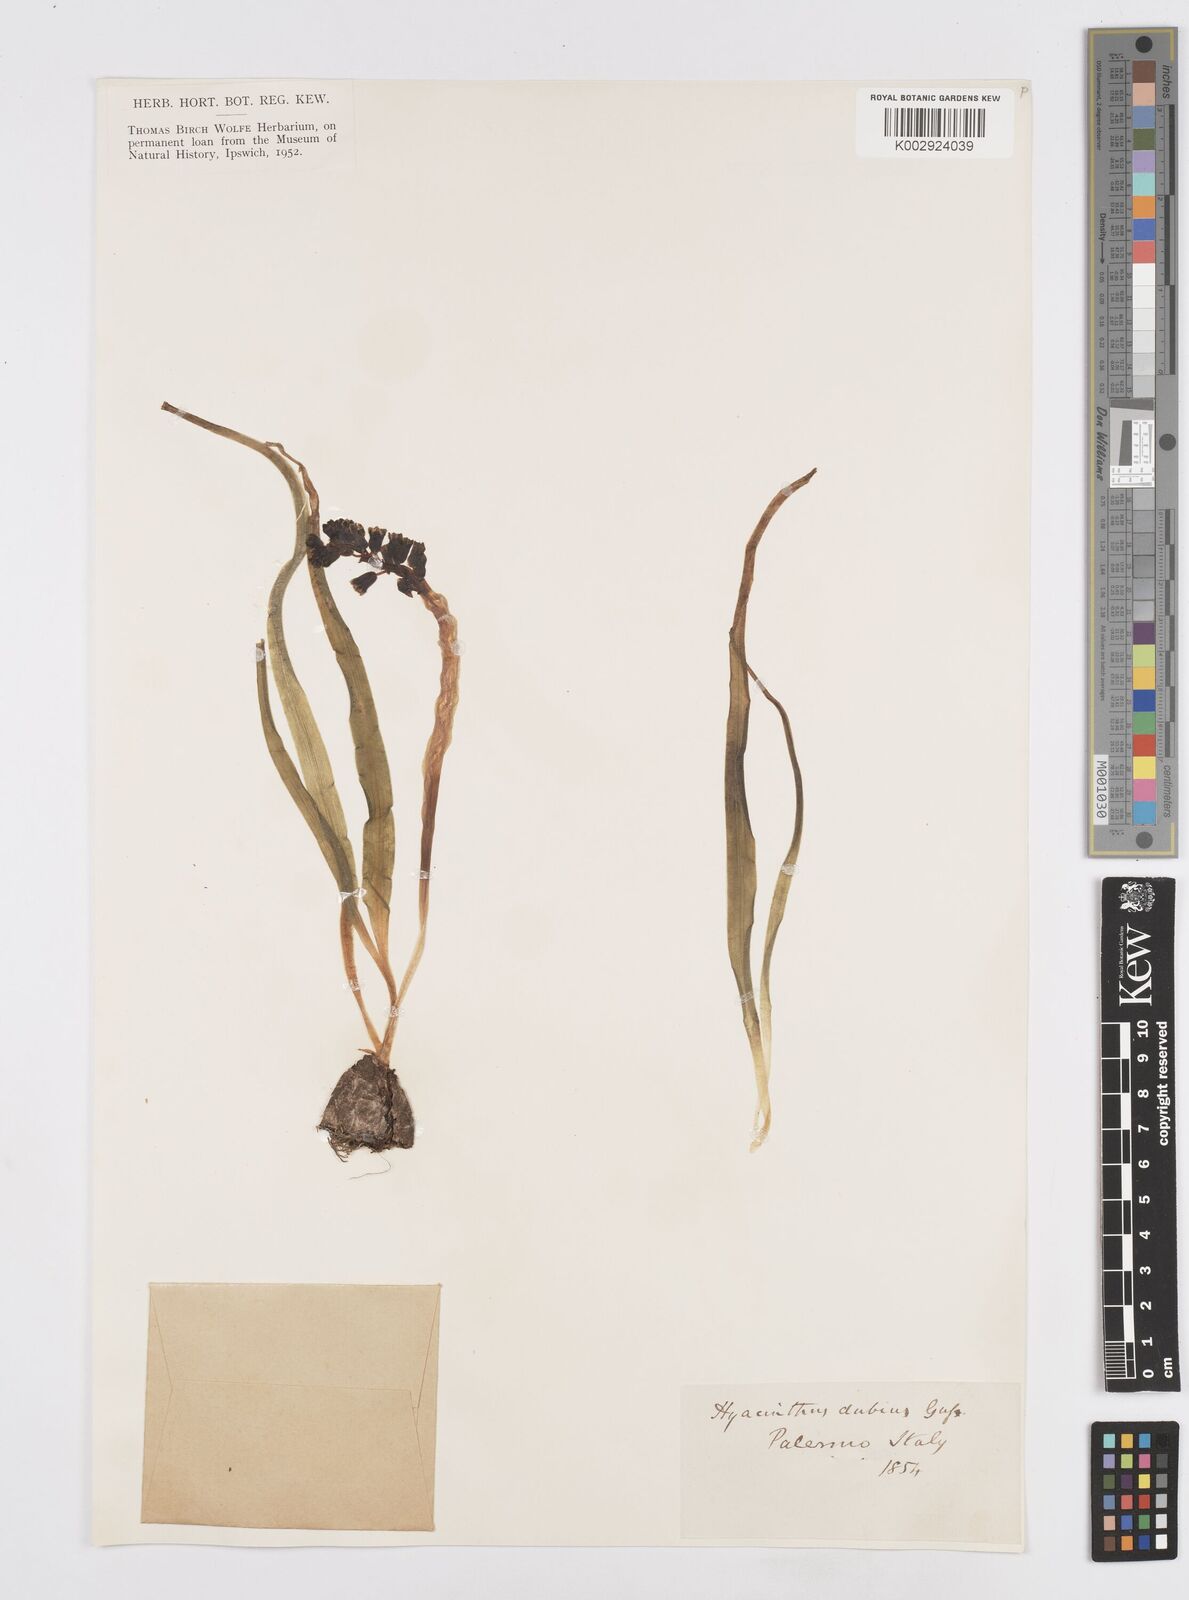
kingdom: Plantae
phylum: Tracheophyta
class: Liliopsida
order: Asparagales
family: Asparagaceae
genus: Bellevalia
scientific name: Bellevalia dubia
